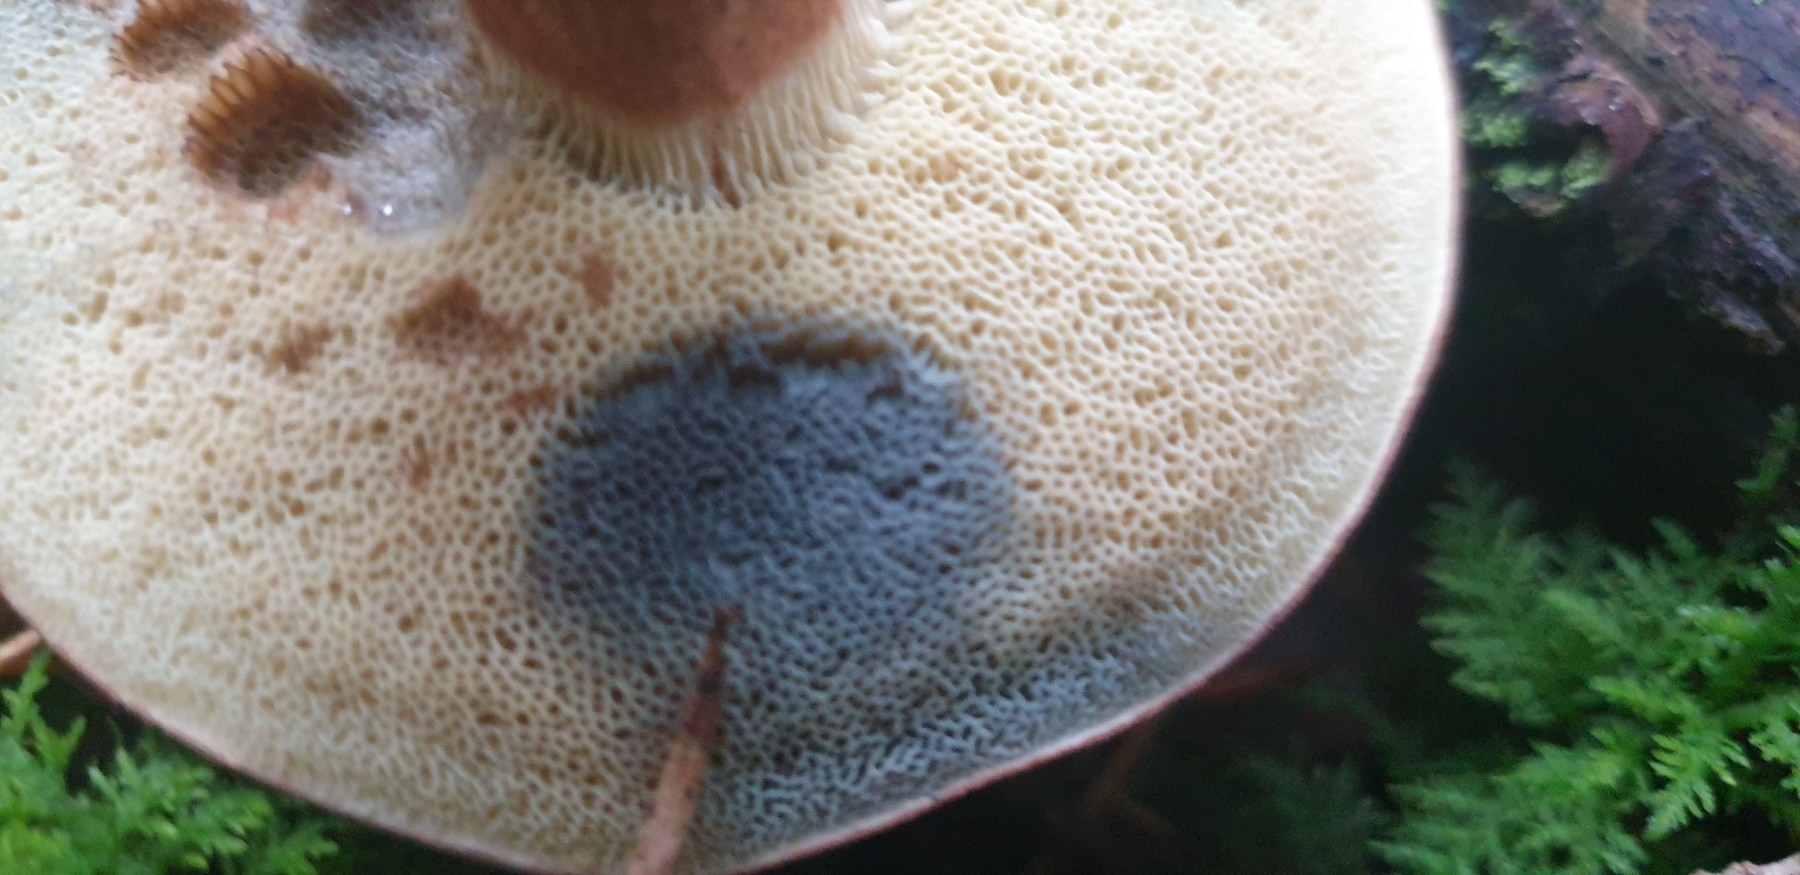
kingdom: Fungi
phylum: Basidiomycota
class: Agaricomycetes
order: Boletales
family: Boletaceae
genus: Imleria
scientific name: Imleria badia
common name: brunstokket rørhat
